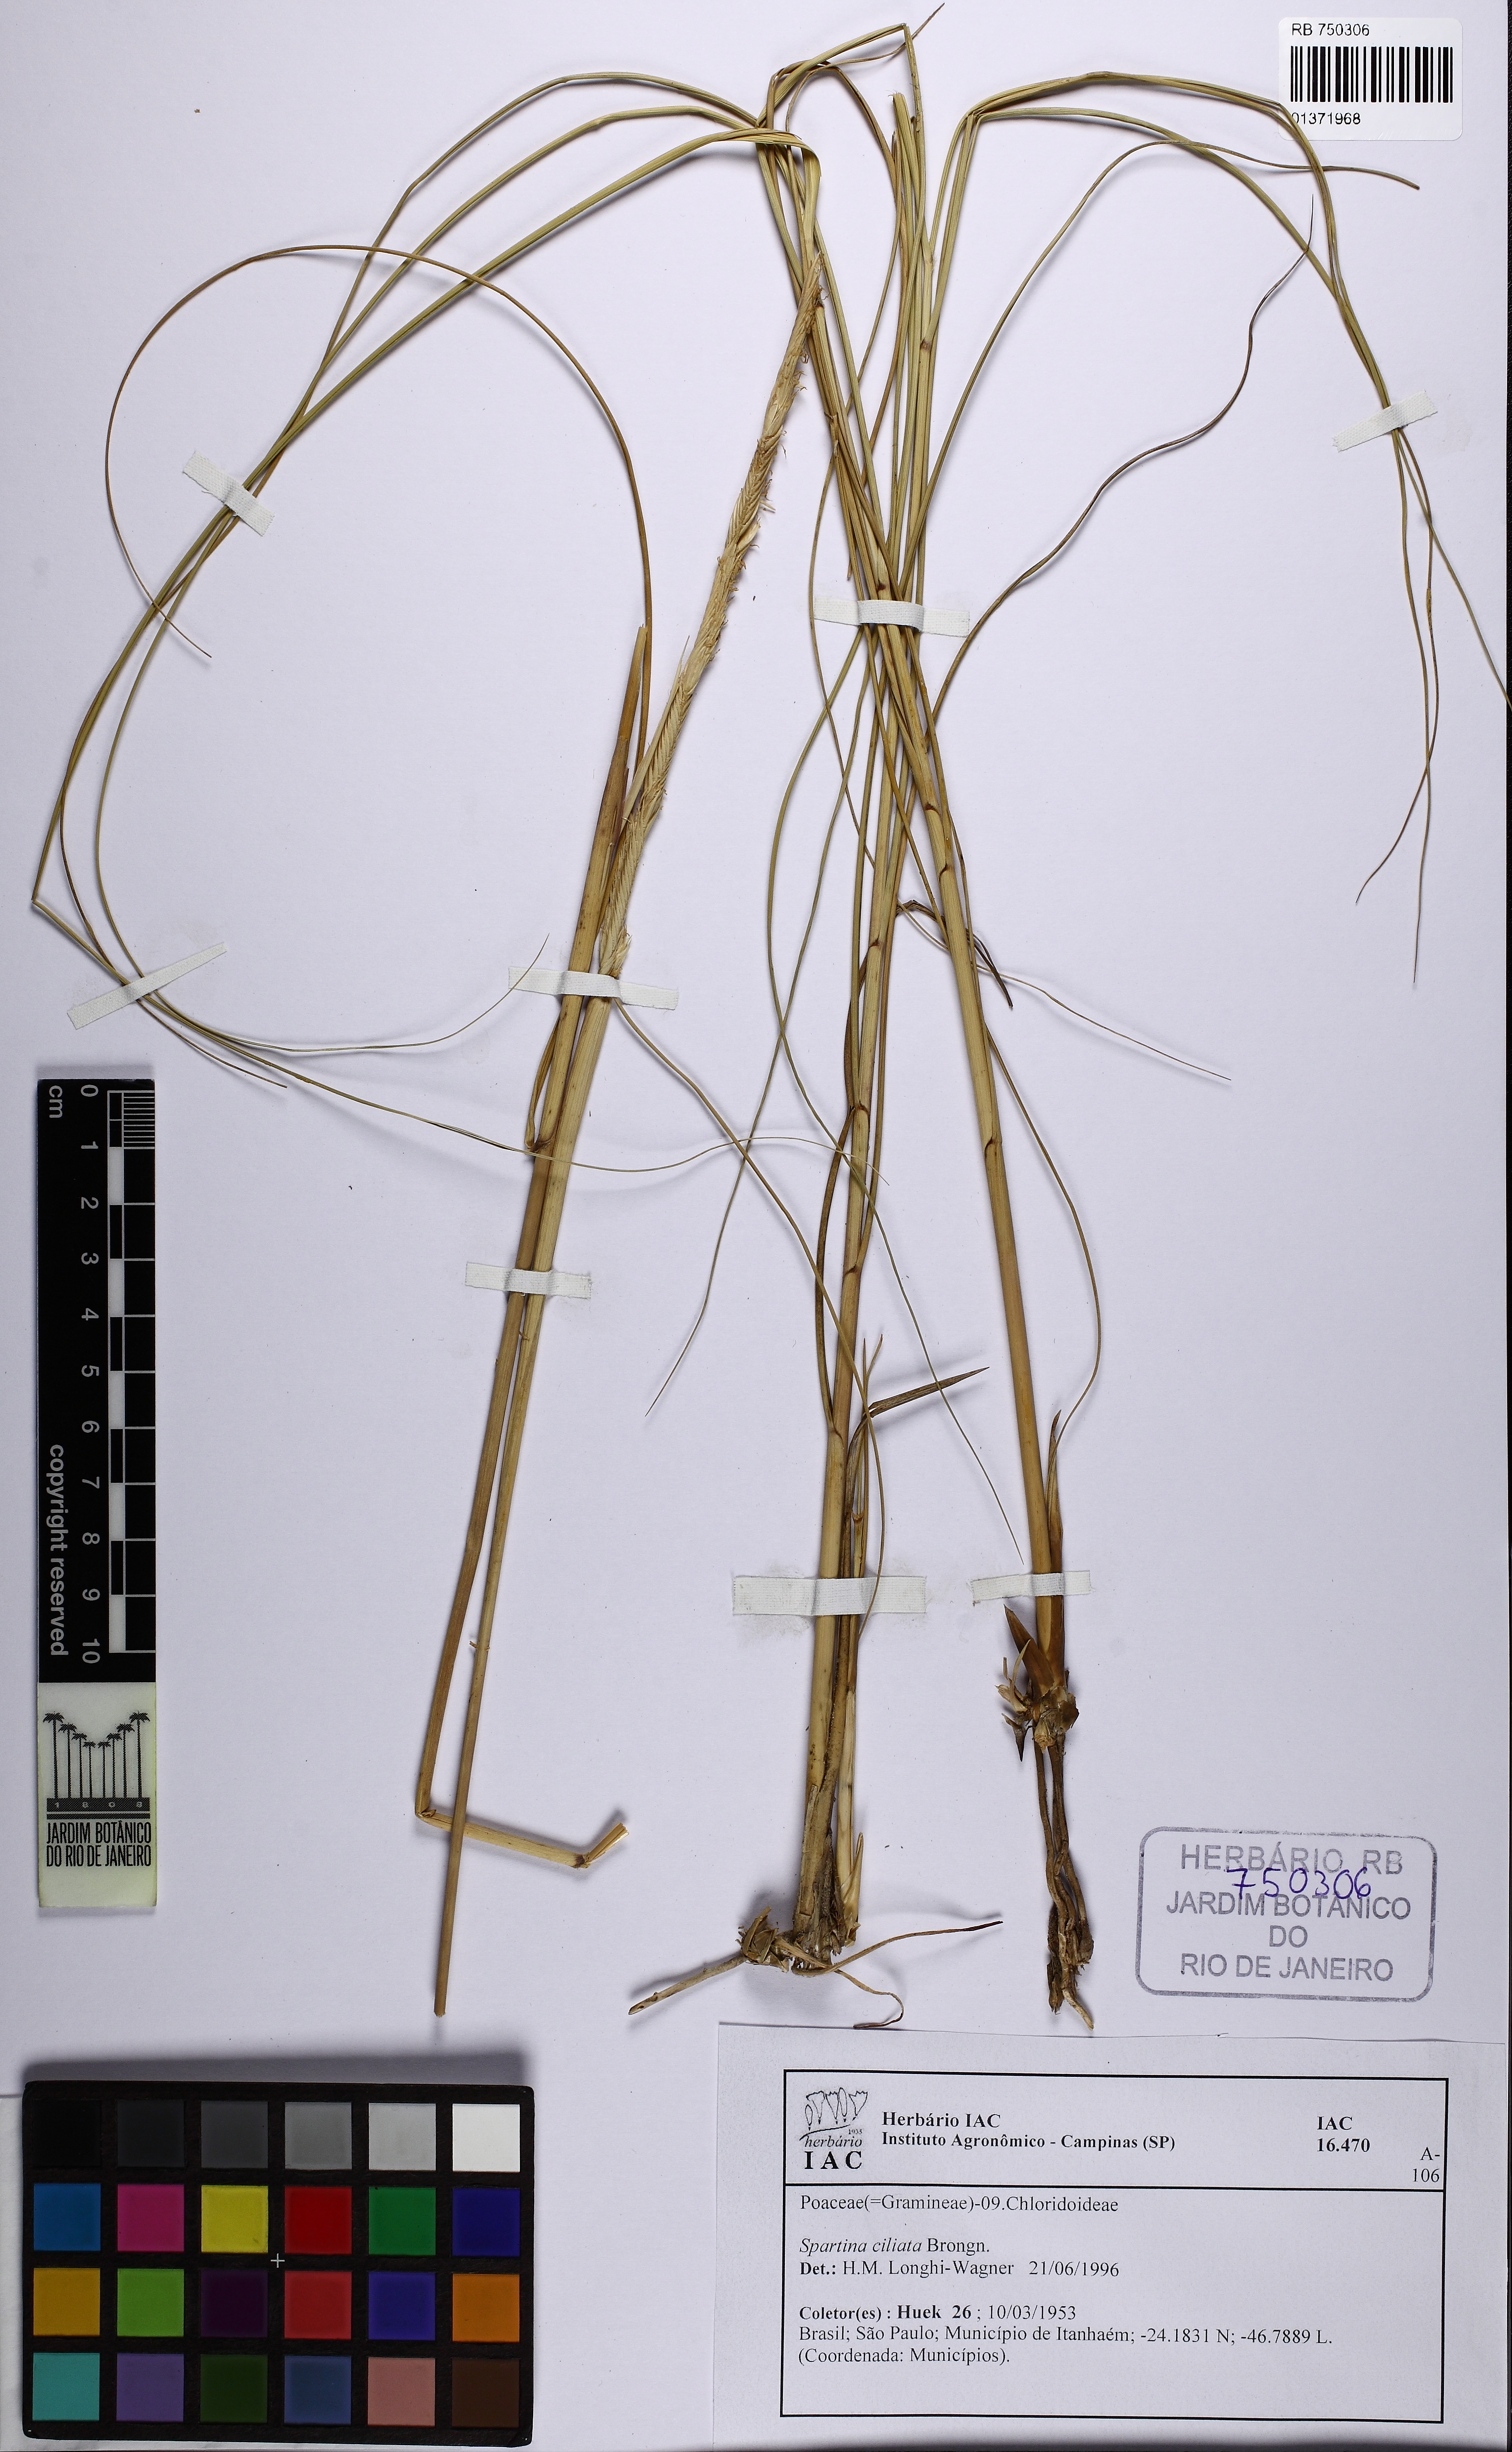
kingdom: Plantae
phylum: Tracheophyta
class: Liliopsida
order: Poales
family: Poaceae
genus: Sporobolus
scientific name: Sporobolus coarctatus
